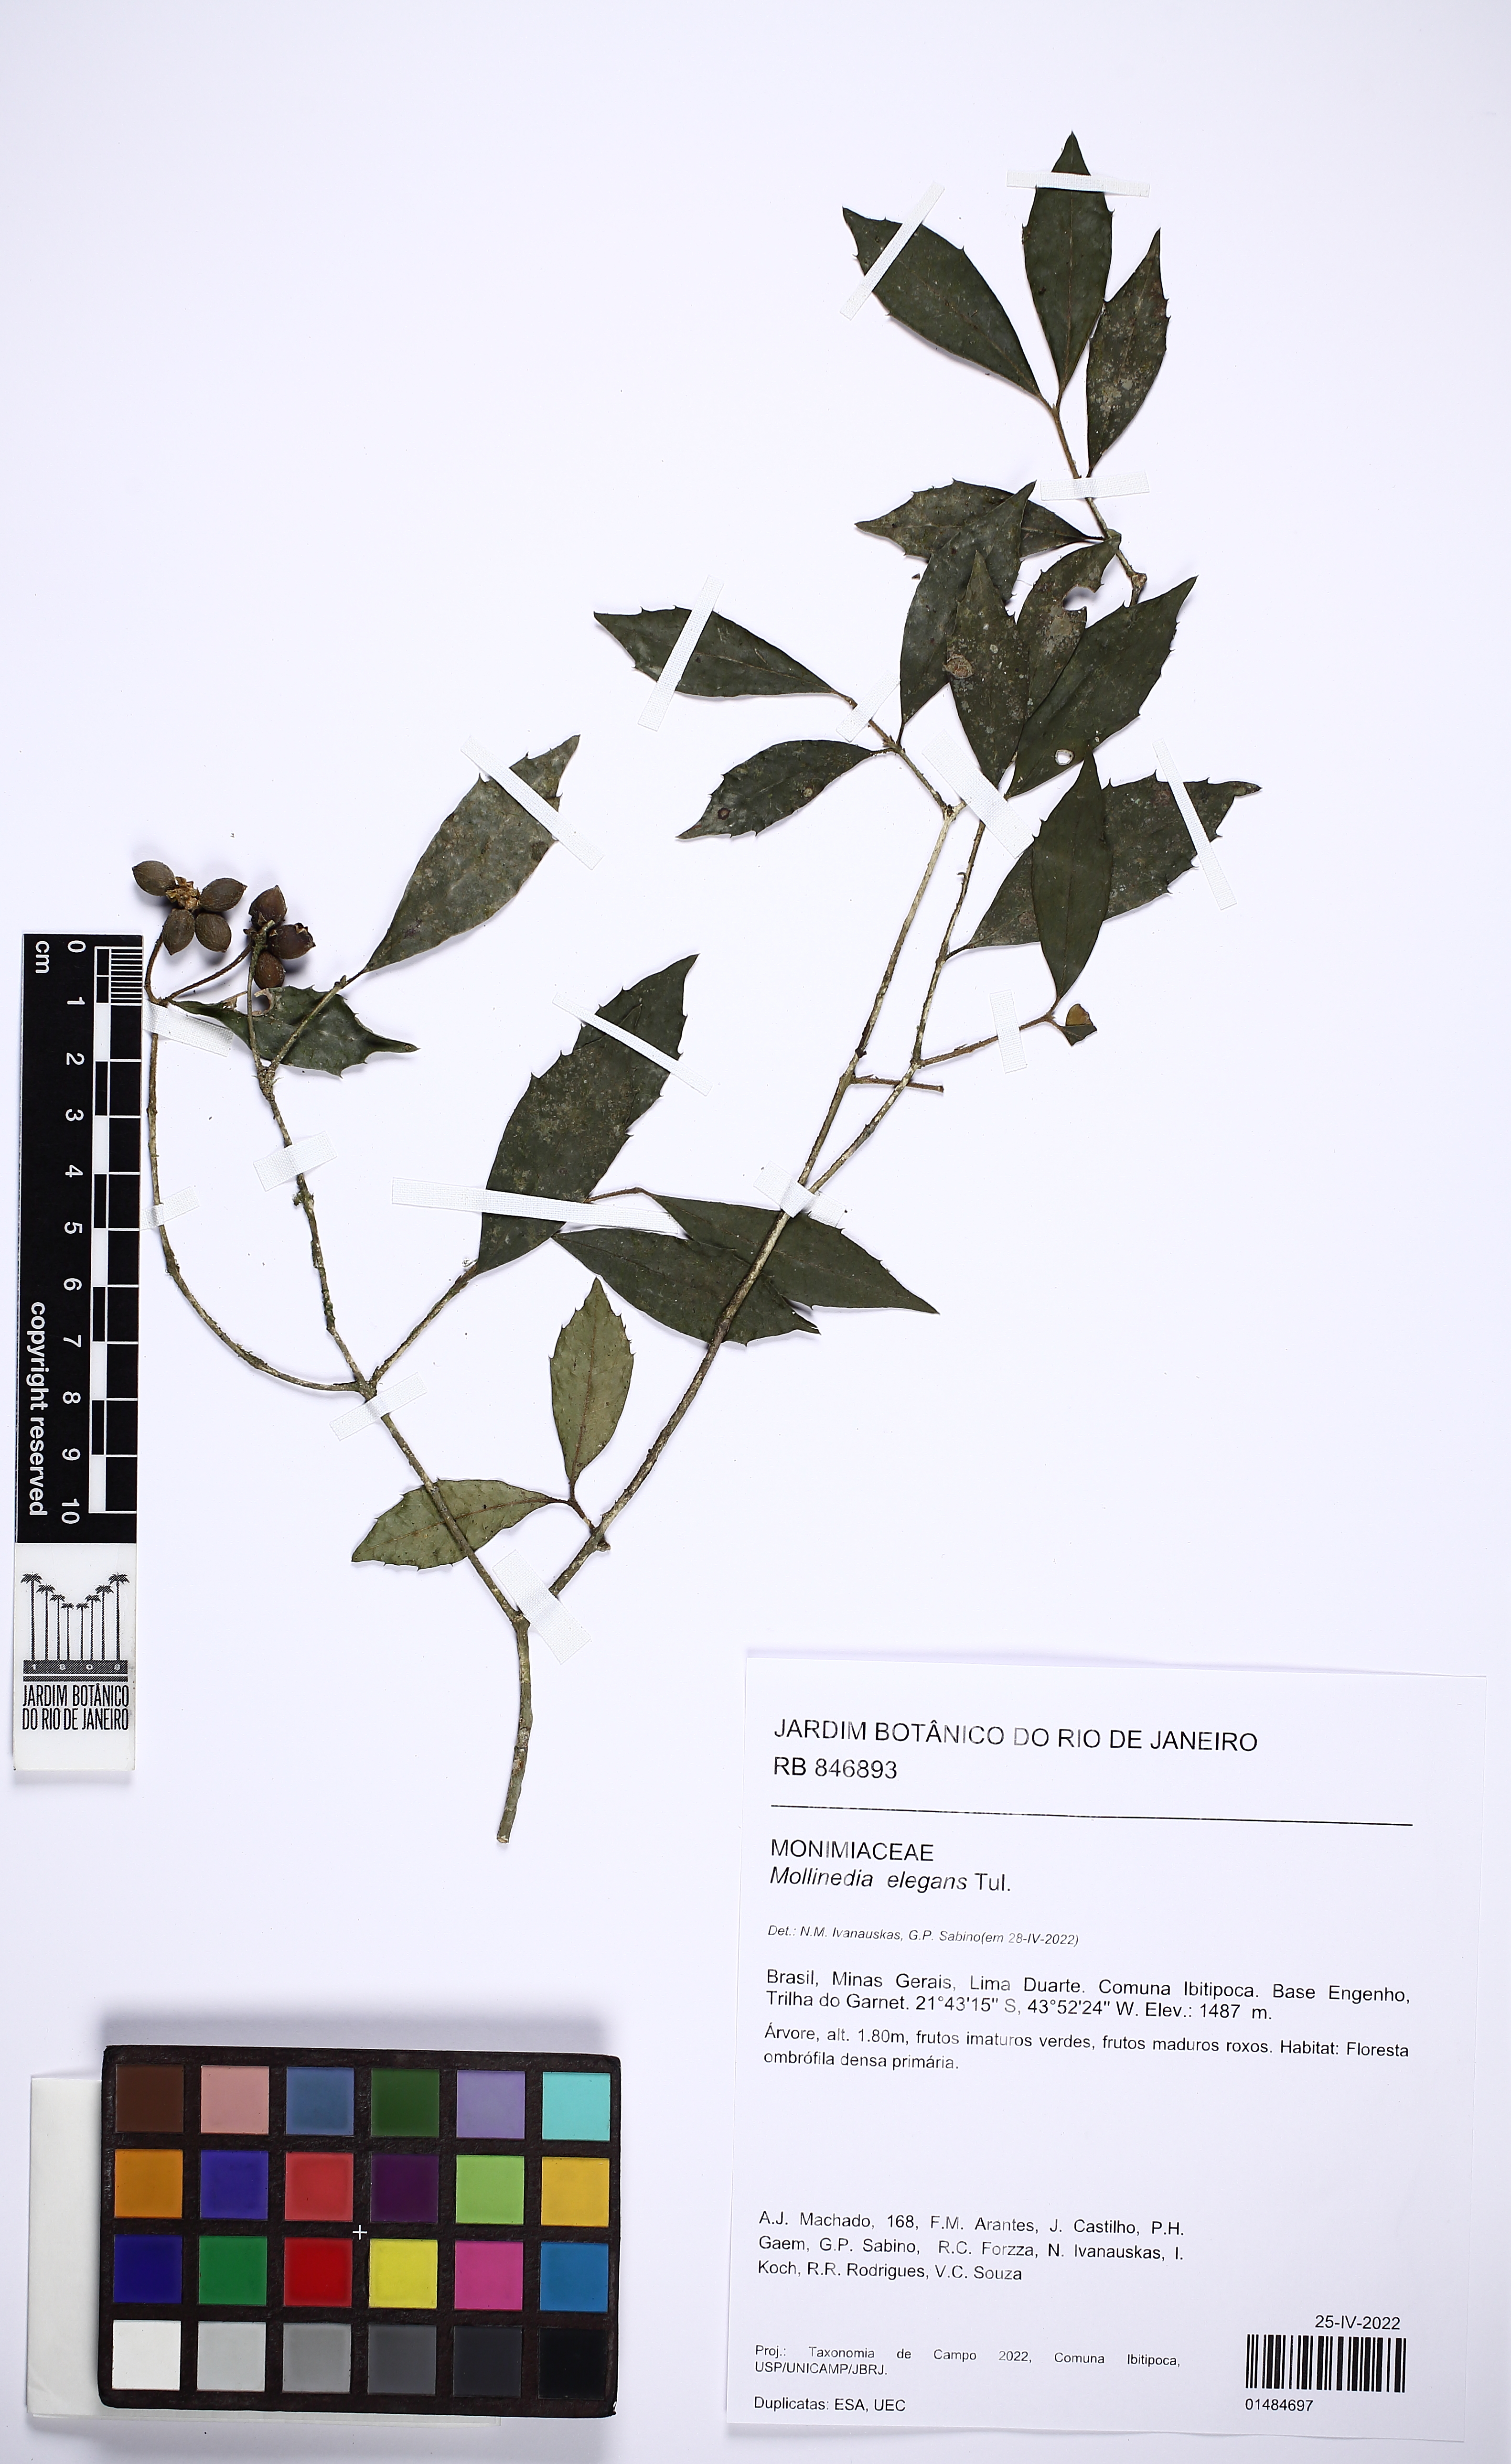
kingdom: Plantae
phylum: Tracheophyta
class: Magnoliopsida
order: Laurales
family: Monimiaceae
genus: Mollinedia
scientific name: Mollinedia elegans
